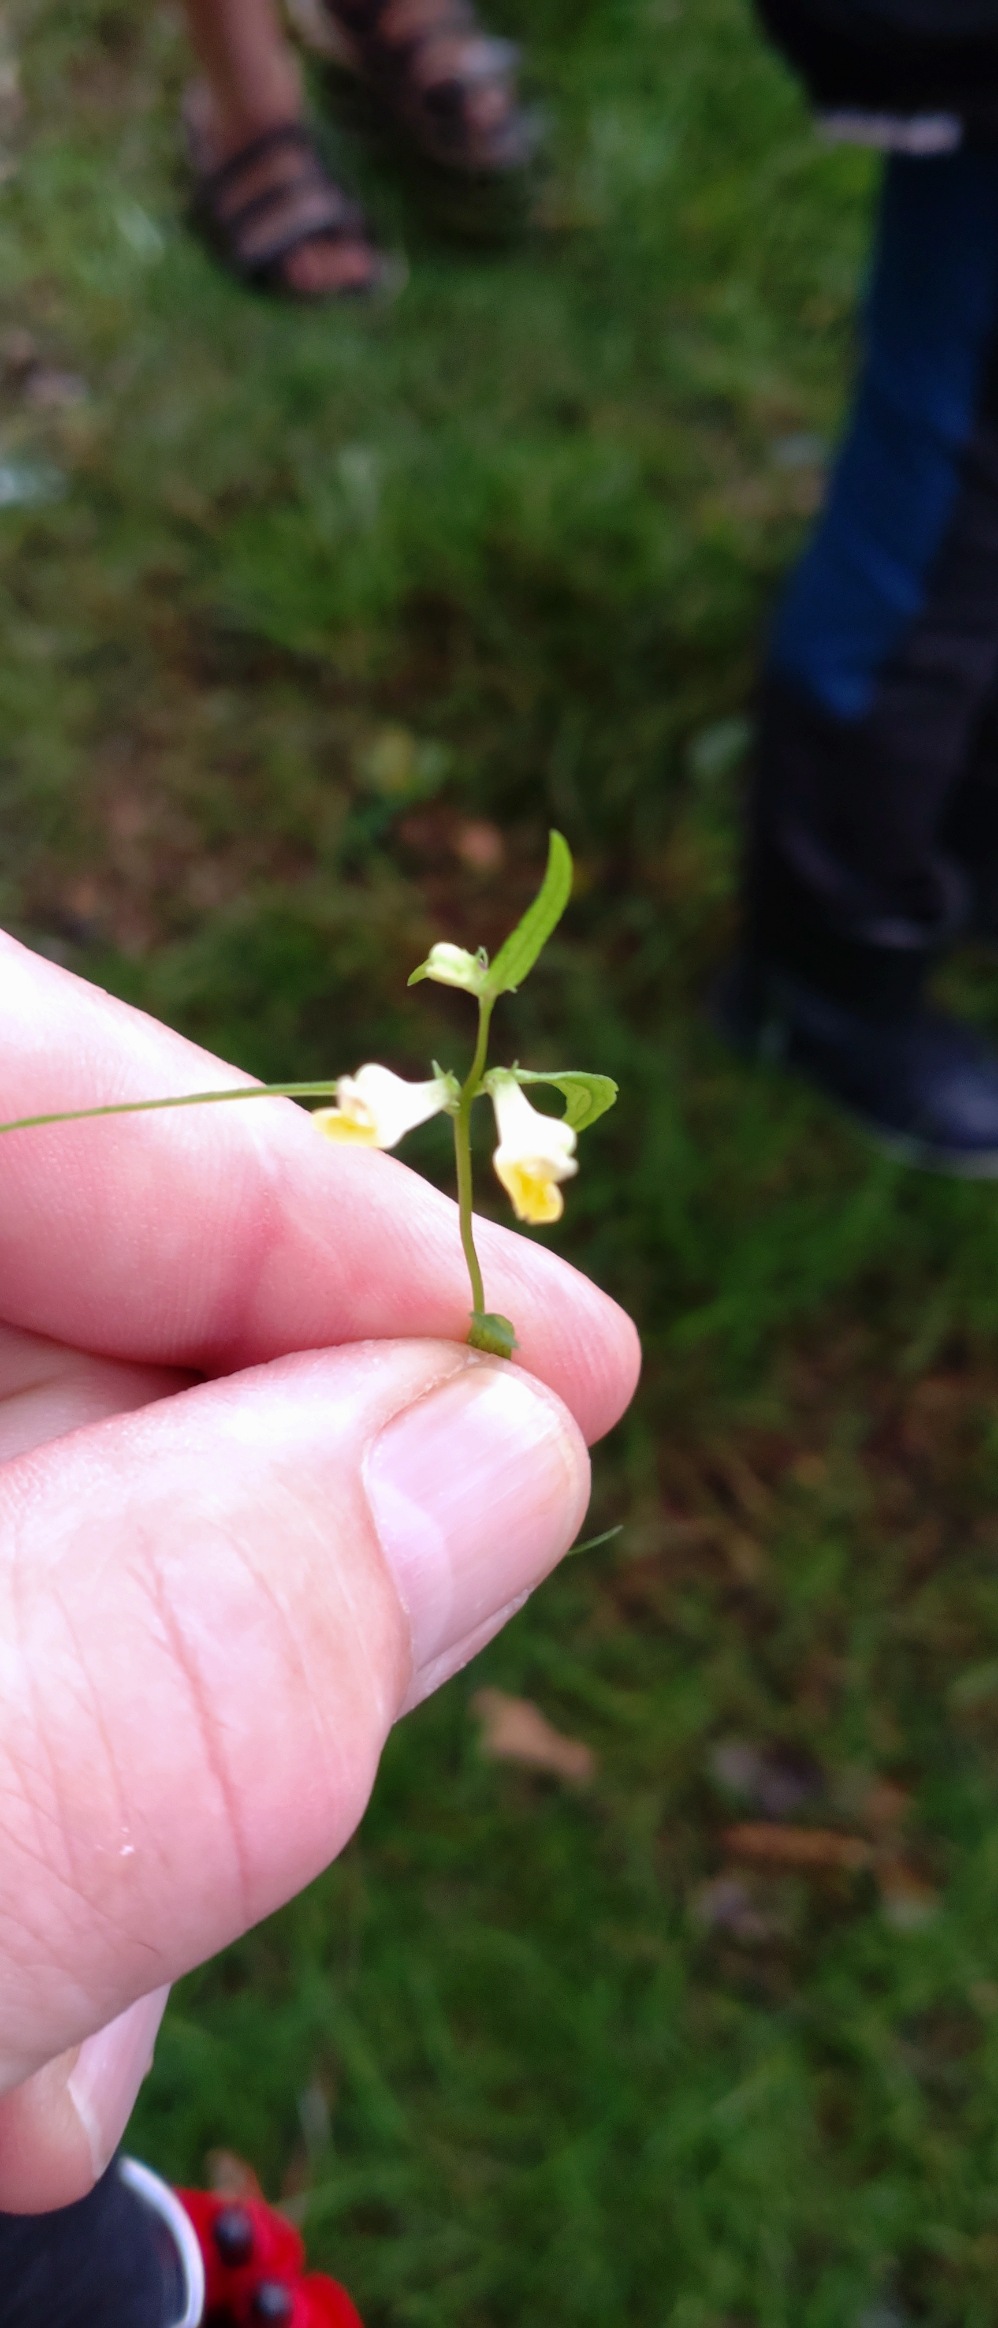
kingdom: Plantae
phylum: Tracheophyta
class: Magnoliopsida
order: Lamiales
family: Orobanchaceae
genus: Melampyrum
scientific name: Melampyrum pratense
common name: Almindelig kohvede
